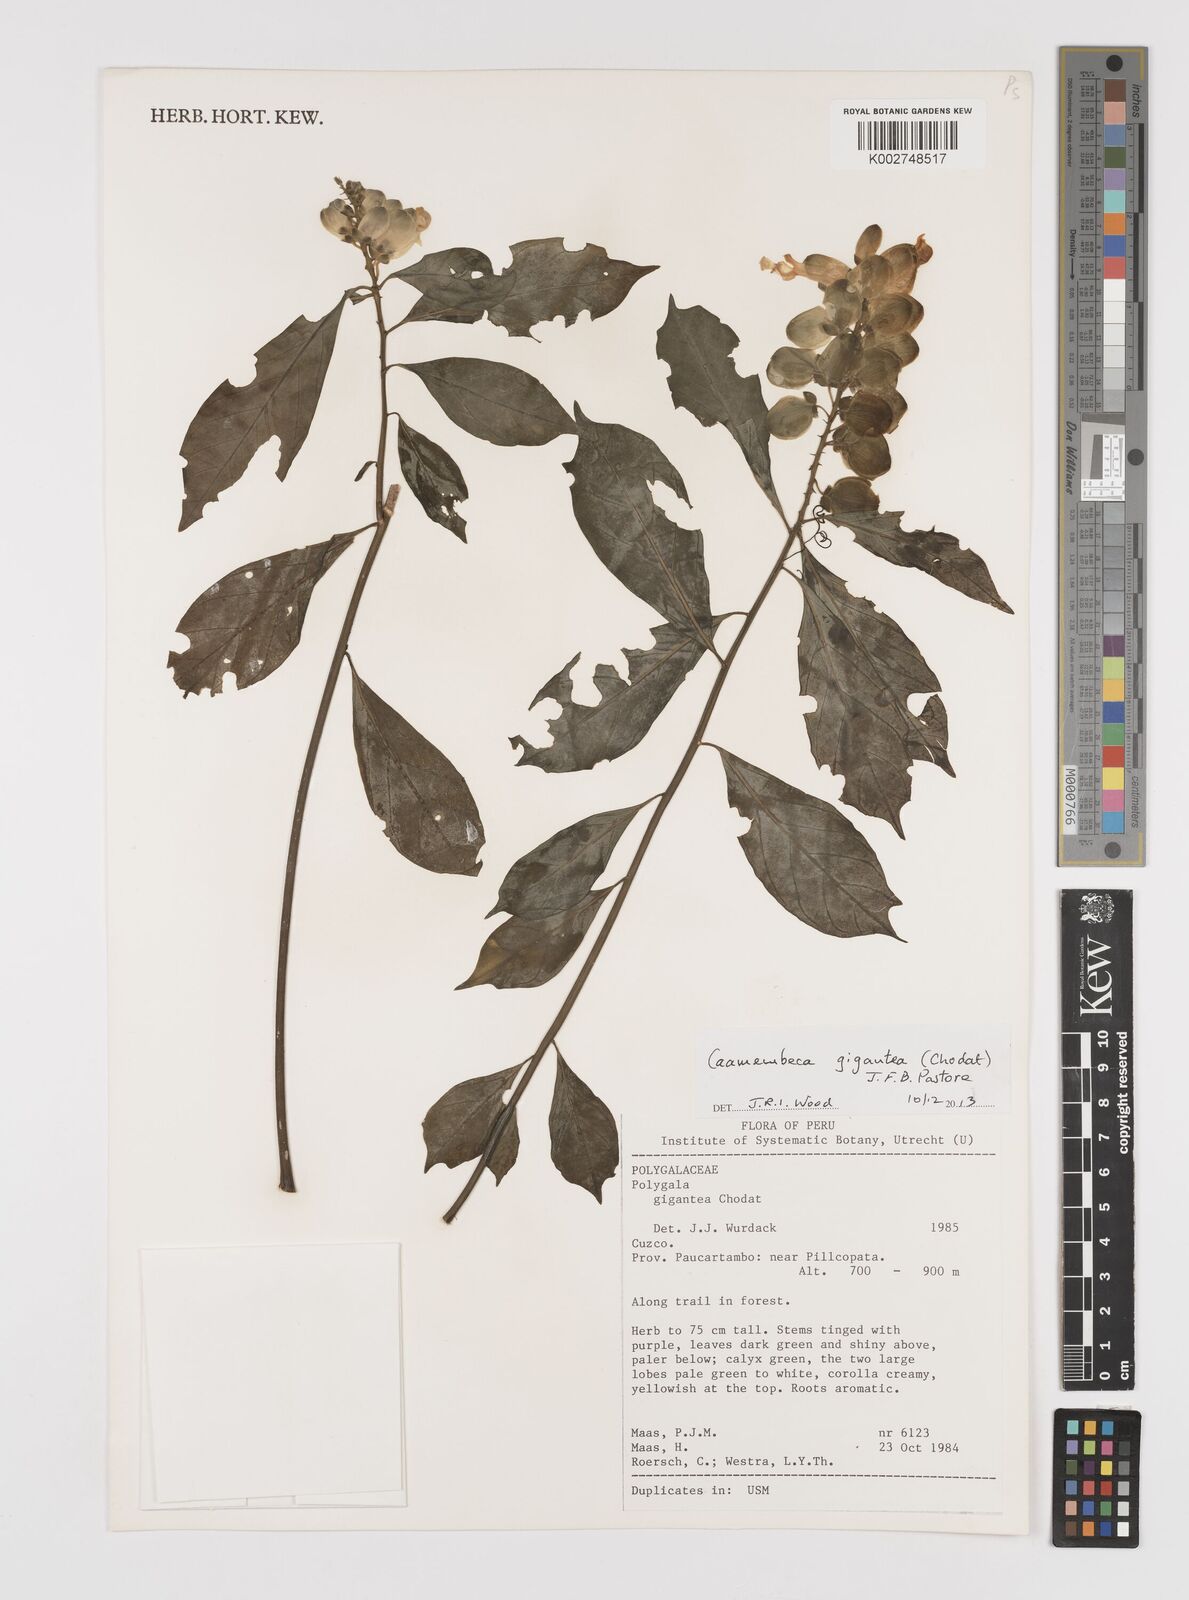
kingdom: Plantae
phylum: Tracheophyta
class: Magnoliopsida
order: Fabales
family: Polygalaceae
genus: Caamembeca
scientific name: Caamembeca gigantea
